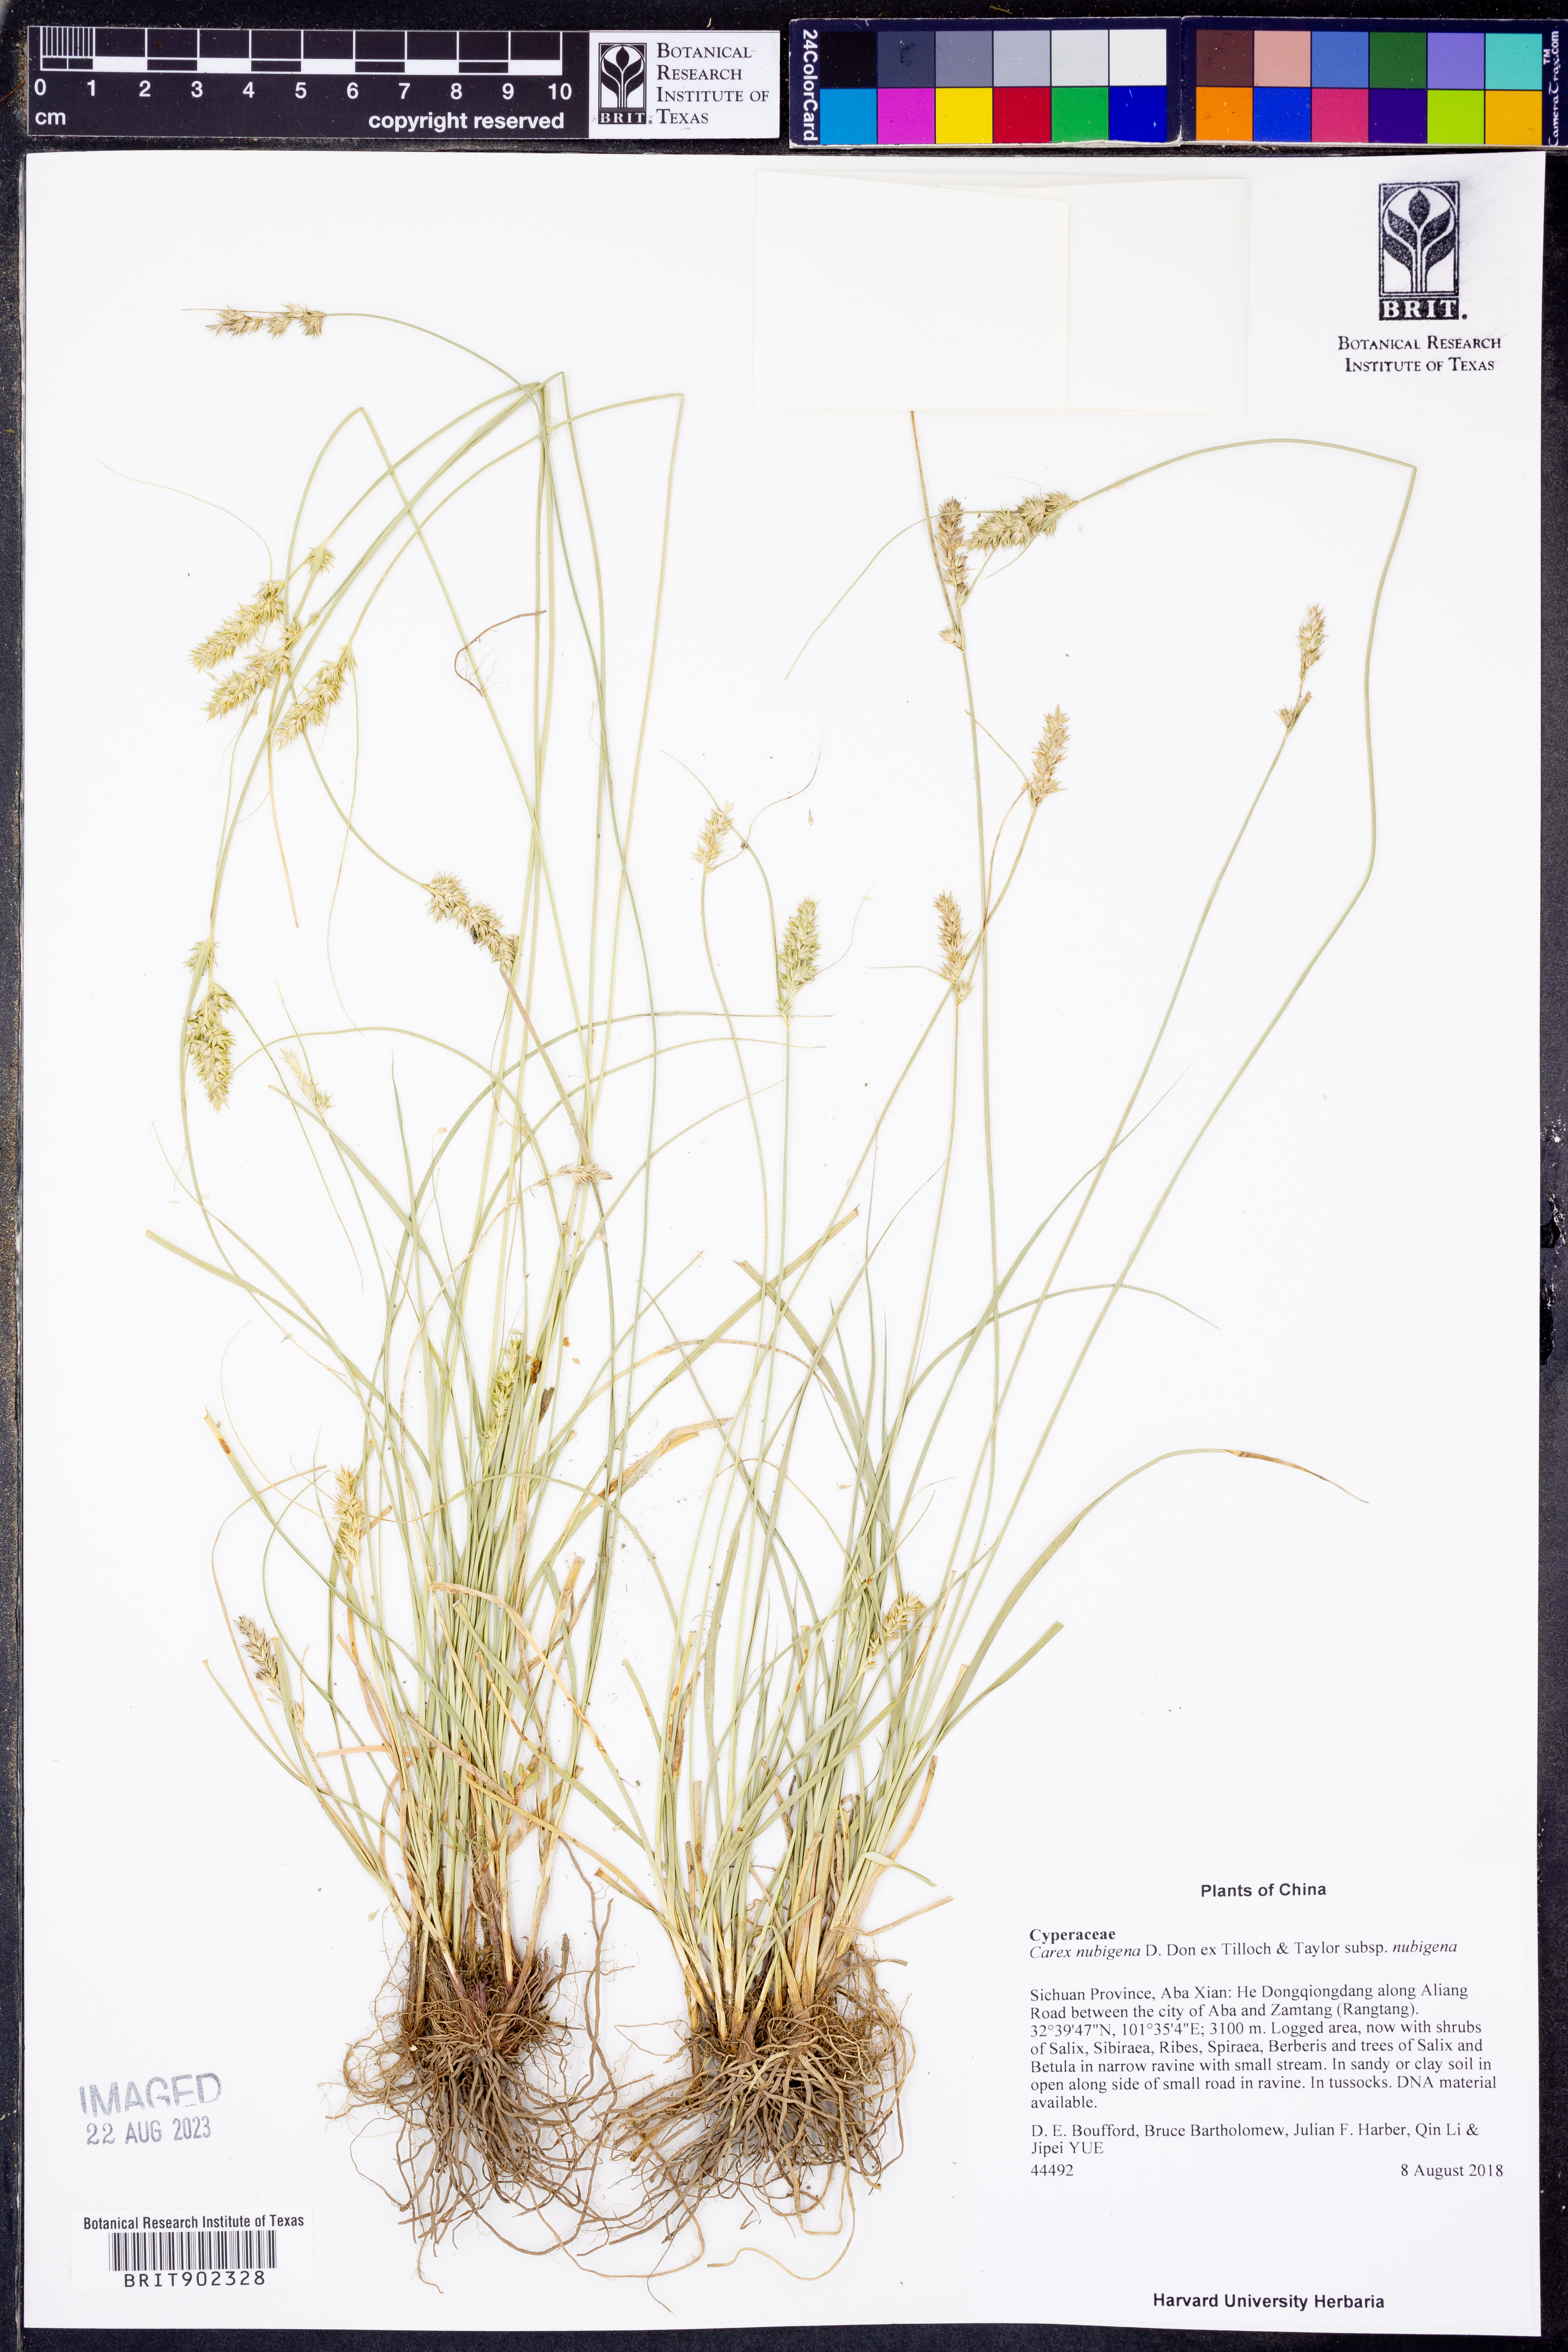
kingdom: Plantae
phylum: Tracheophyta
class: Liliopsida
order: Poales
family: Cyperaceae
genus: Carex
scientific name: Carex nubigena
